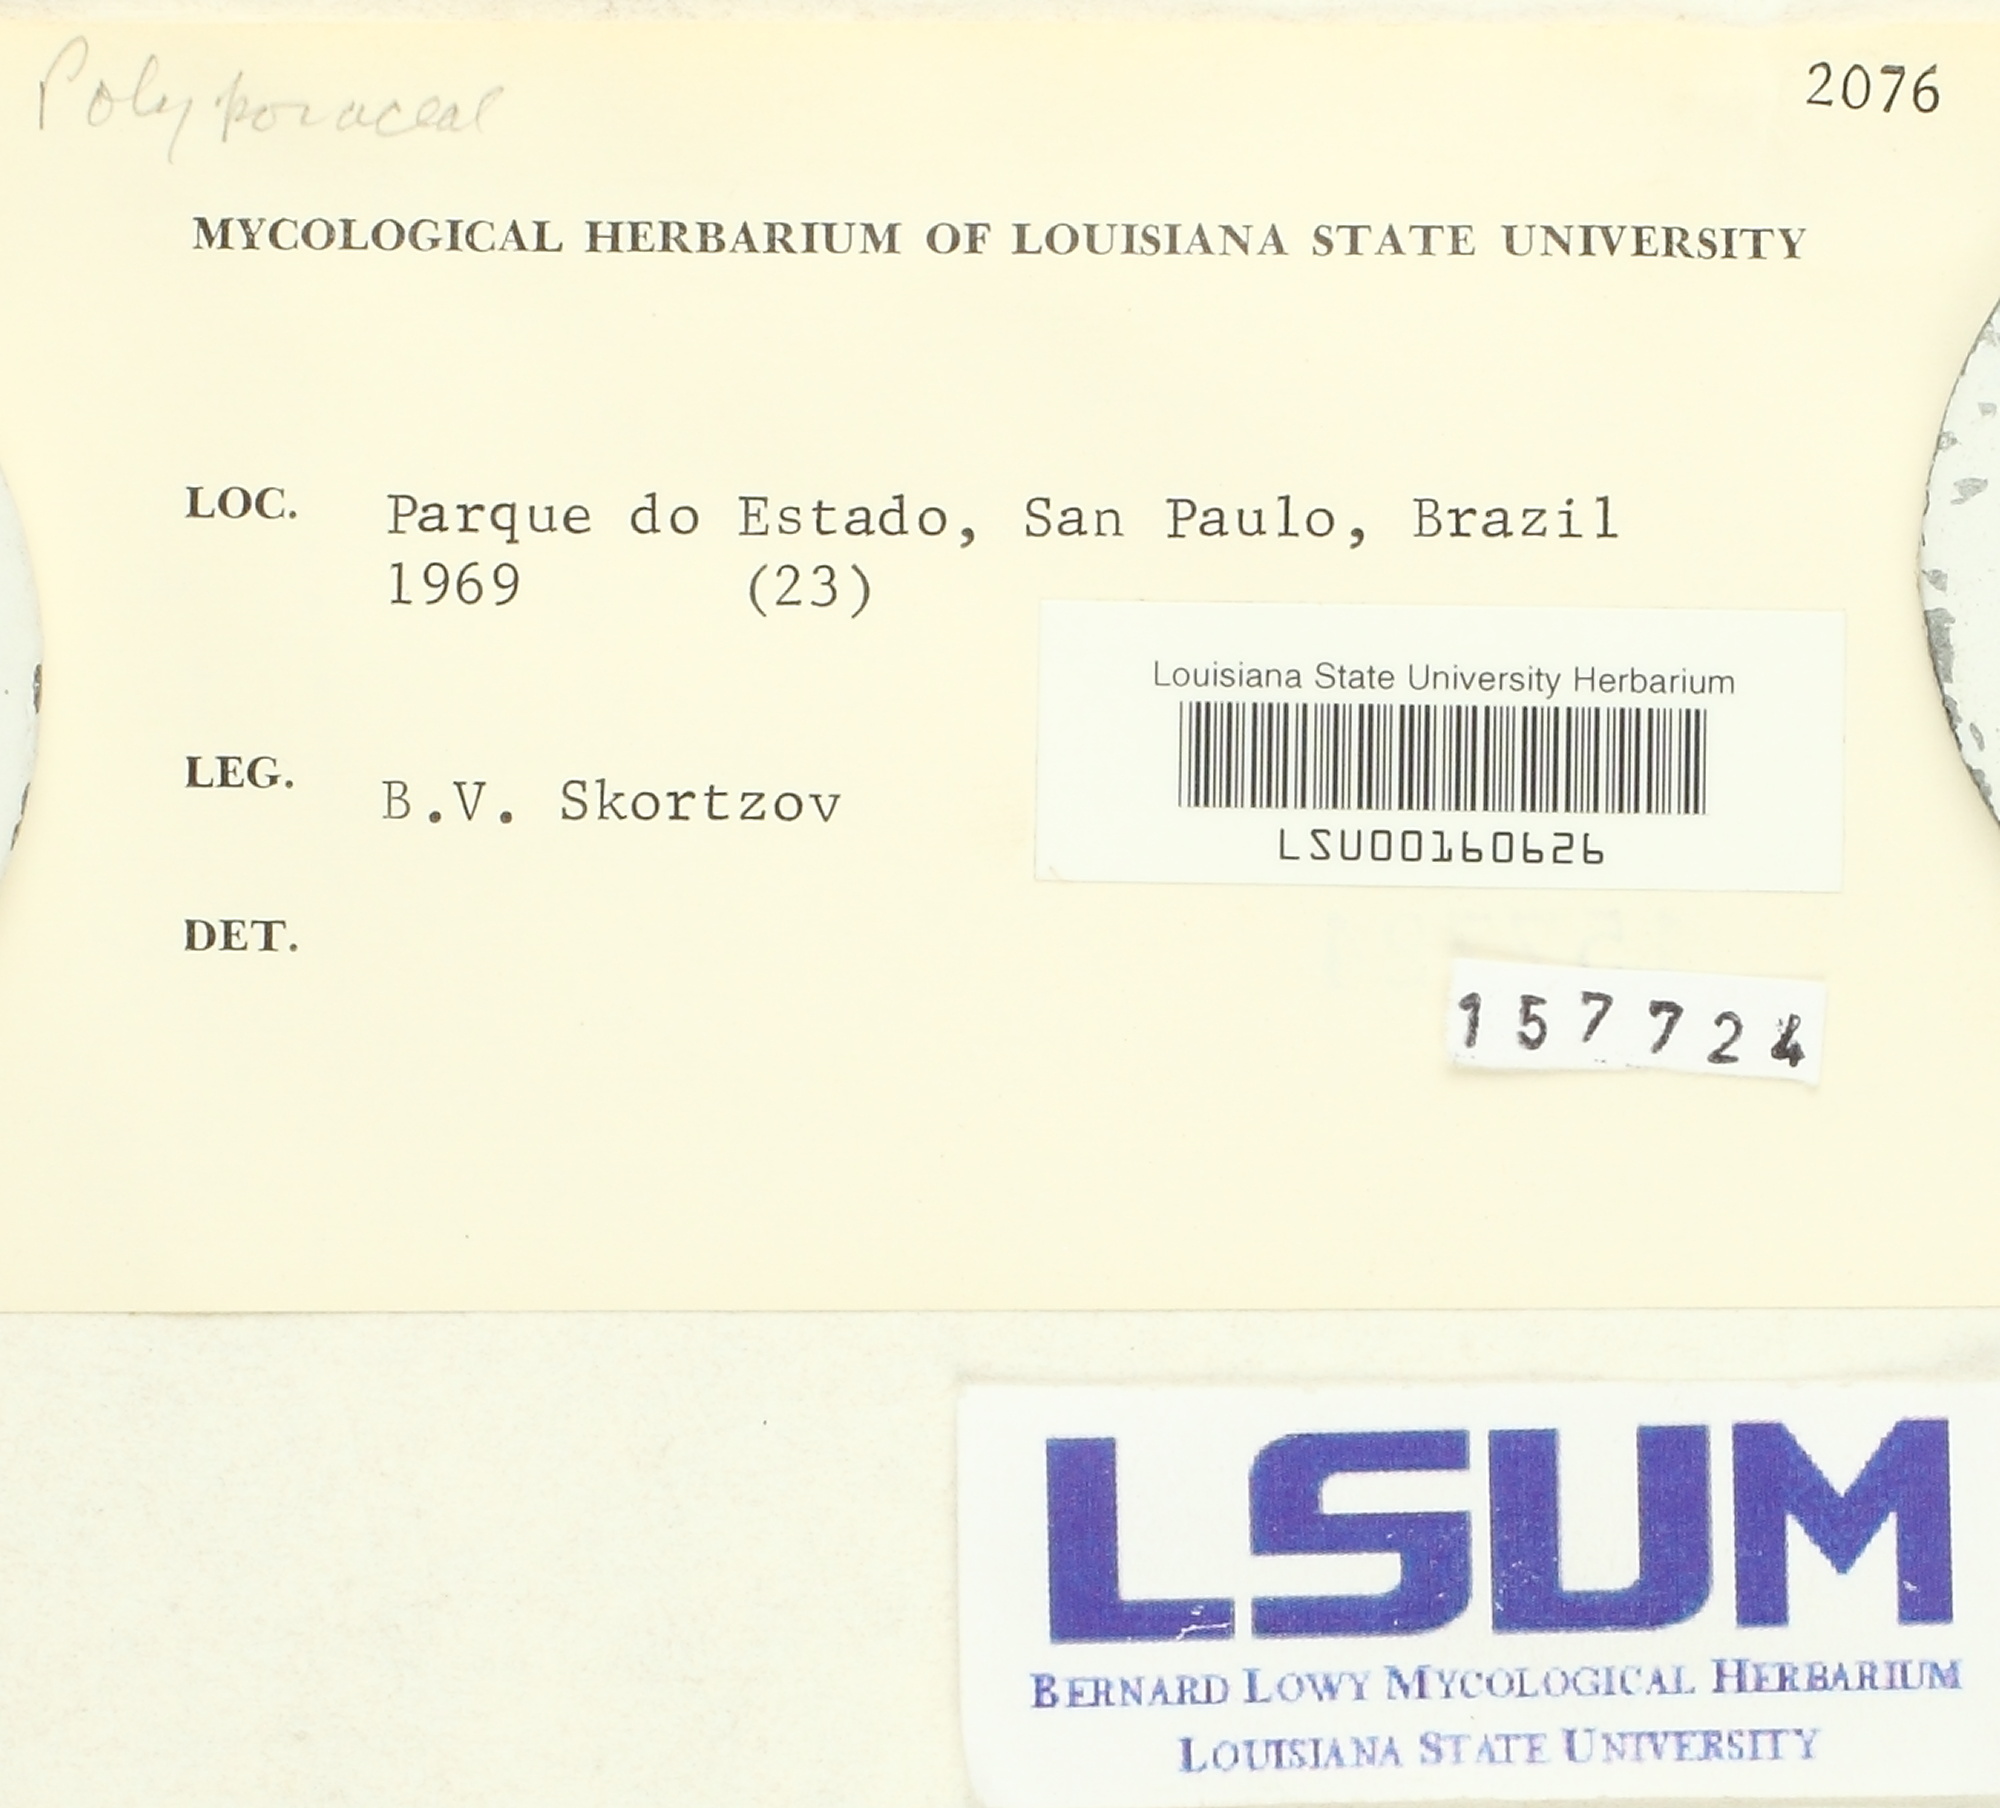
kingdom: Fungi
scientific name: Fungi
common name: Fungi
